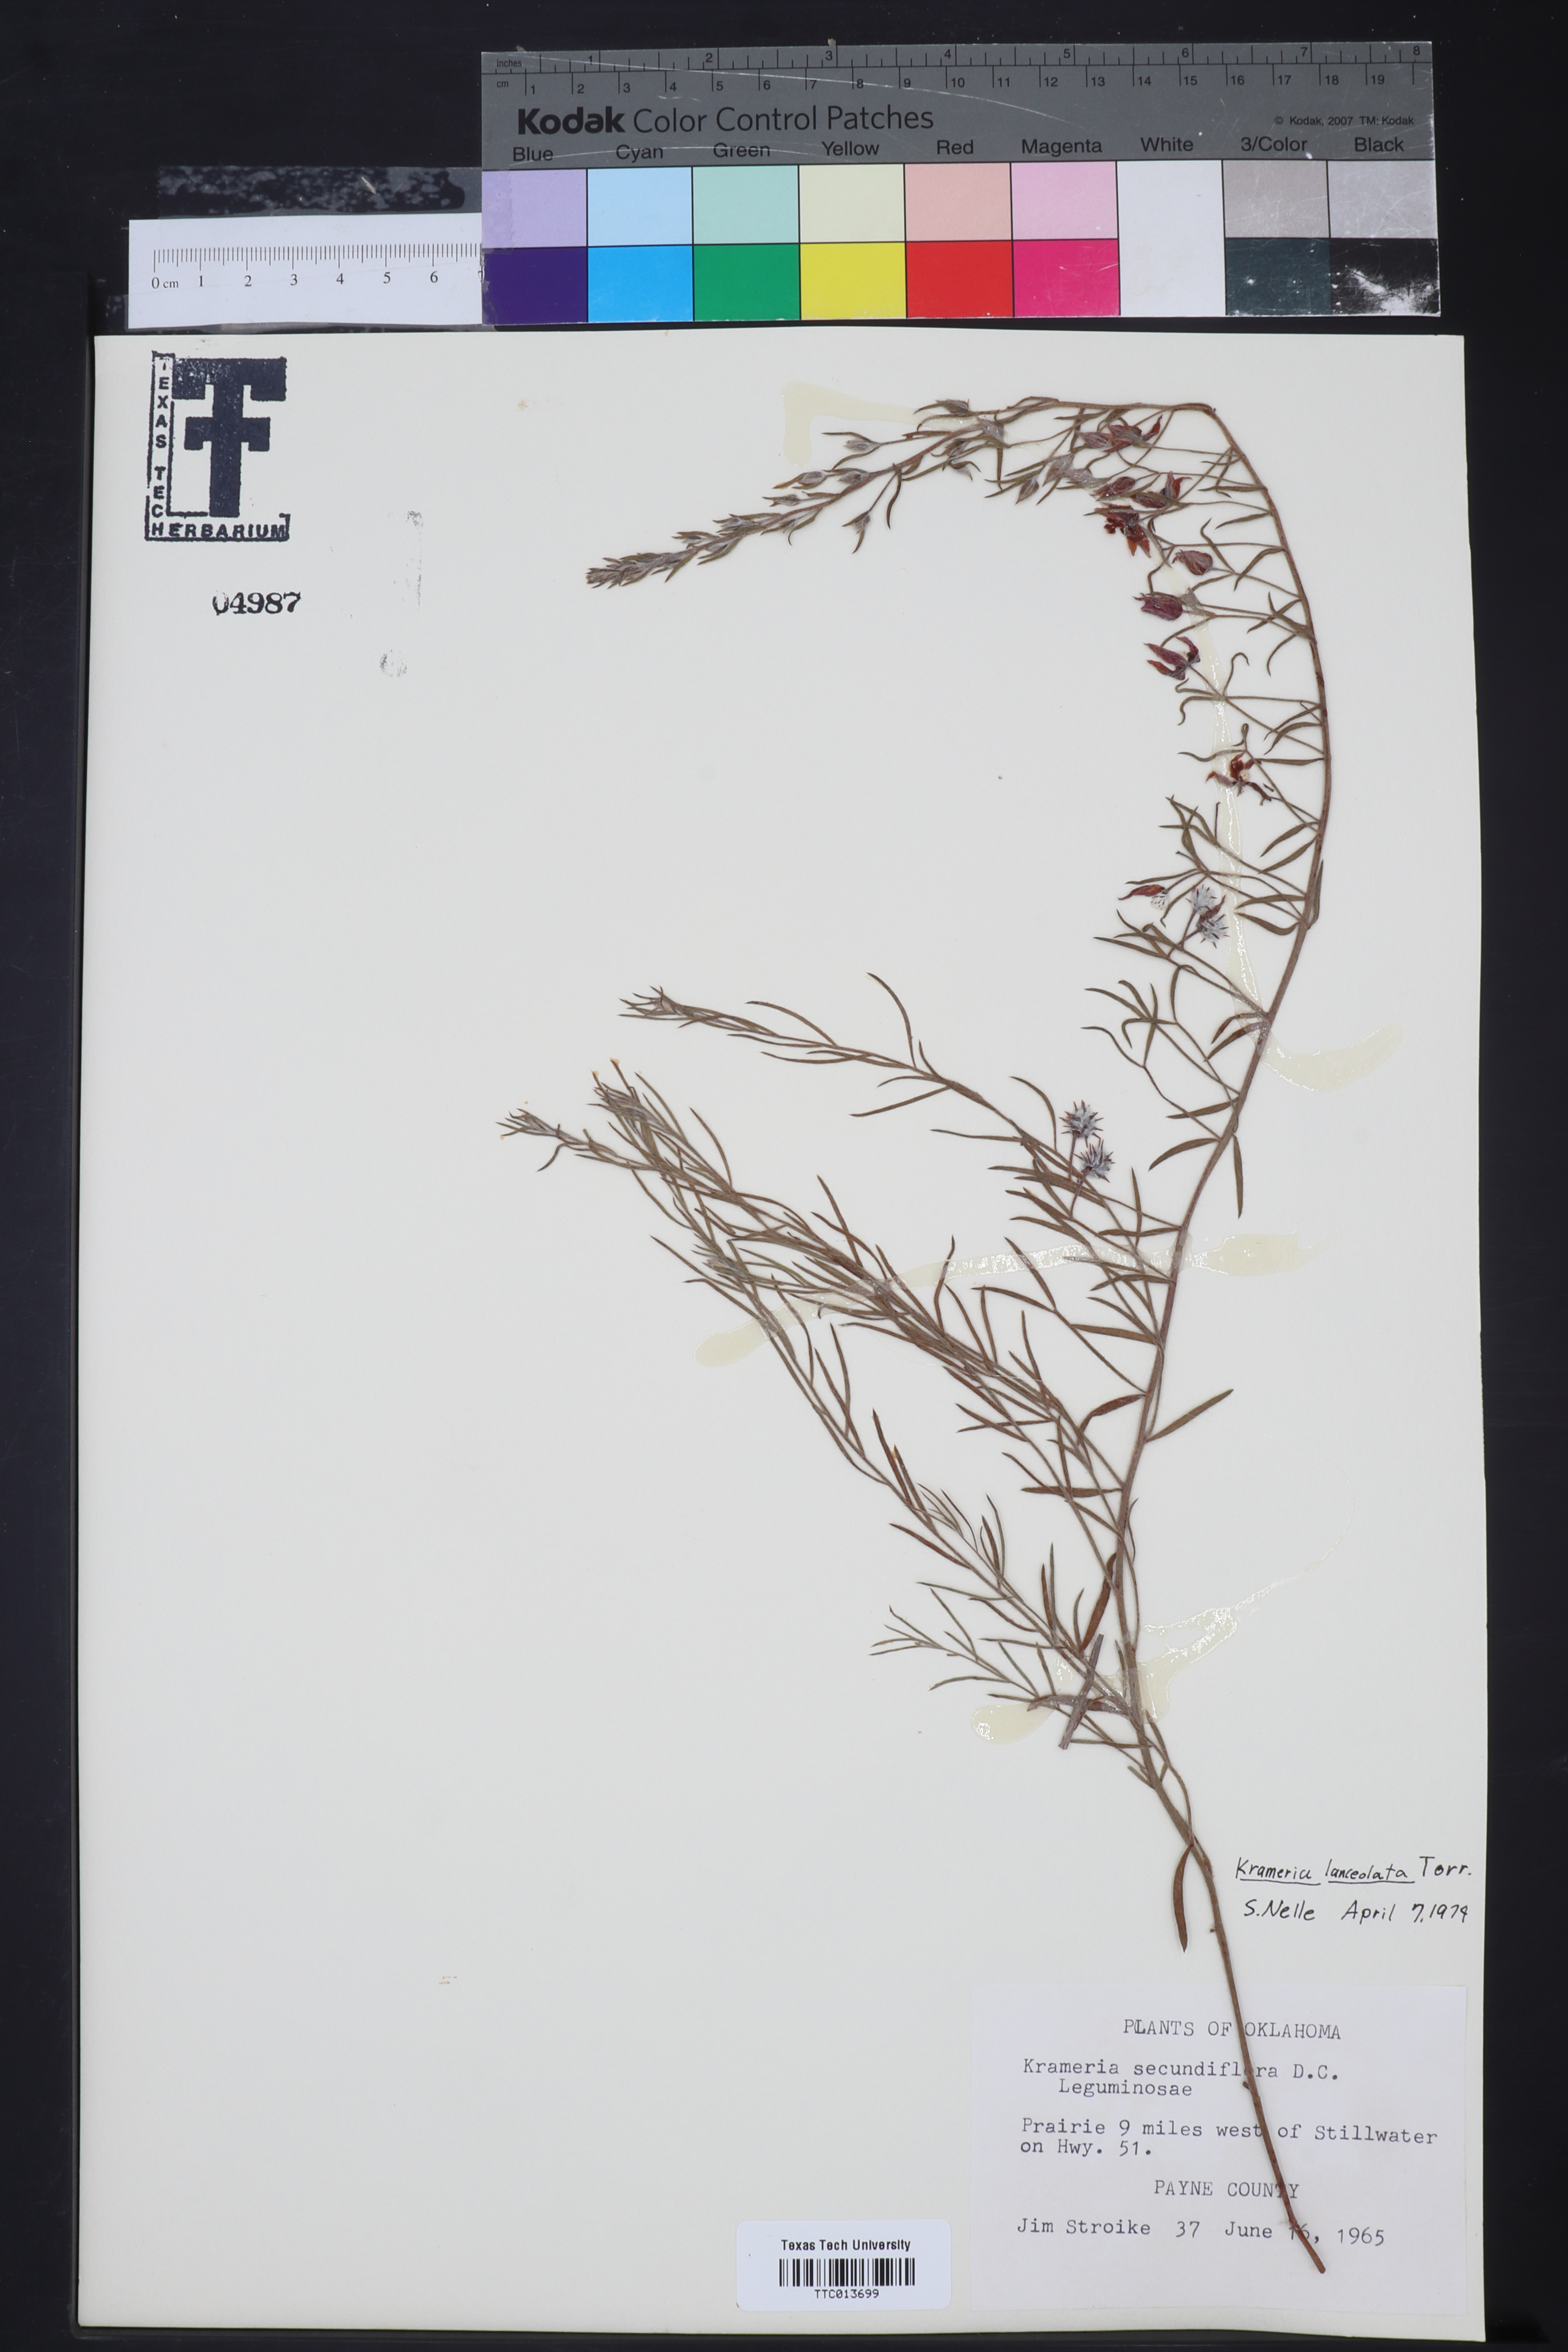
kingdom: Plantae
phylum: Tracheophyta
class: Magnoliopsida
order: Zygophyllales
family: Krameriaceae
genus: Krameria
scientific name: Krameria erecta
